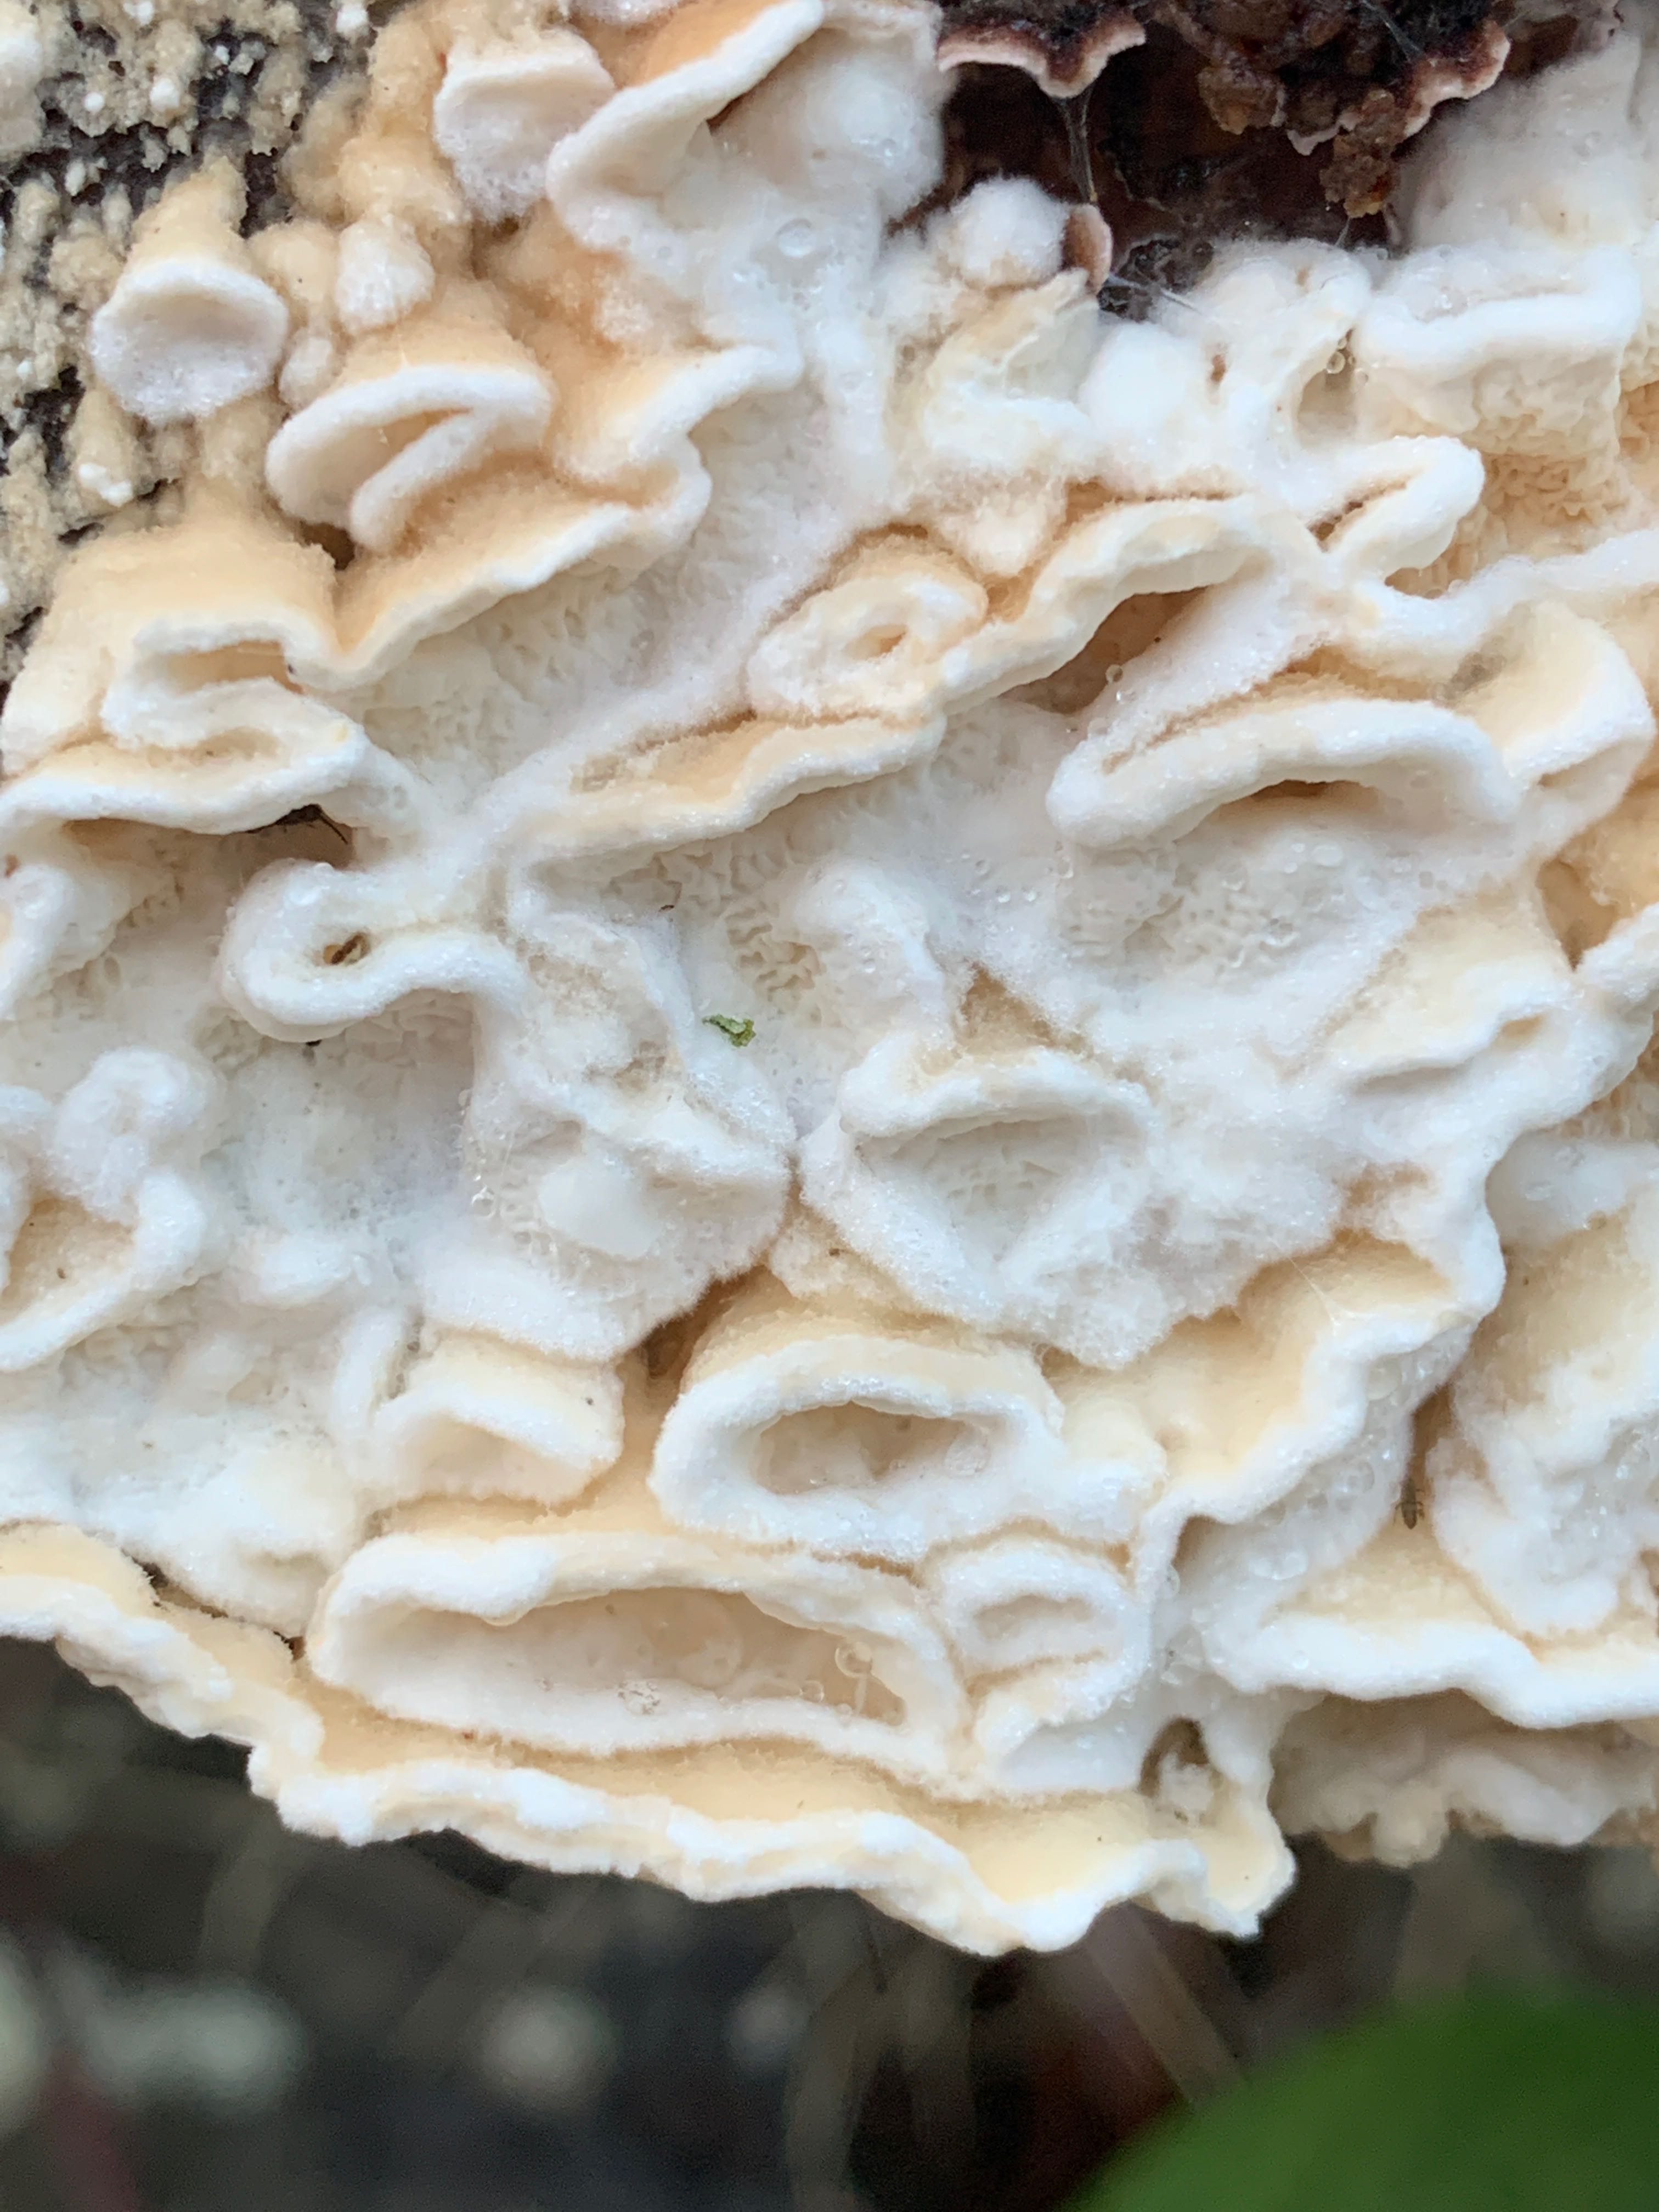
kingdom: Fungi
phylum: Basidiomycota
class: Agaricomycetes
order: Polyporales
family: Irpicaceae
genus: Byssomerulius
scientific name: Byssomerulius corium
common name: læder-åresvamp
